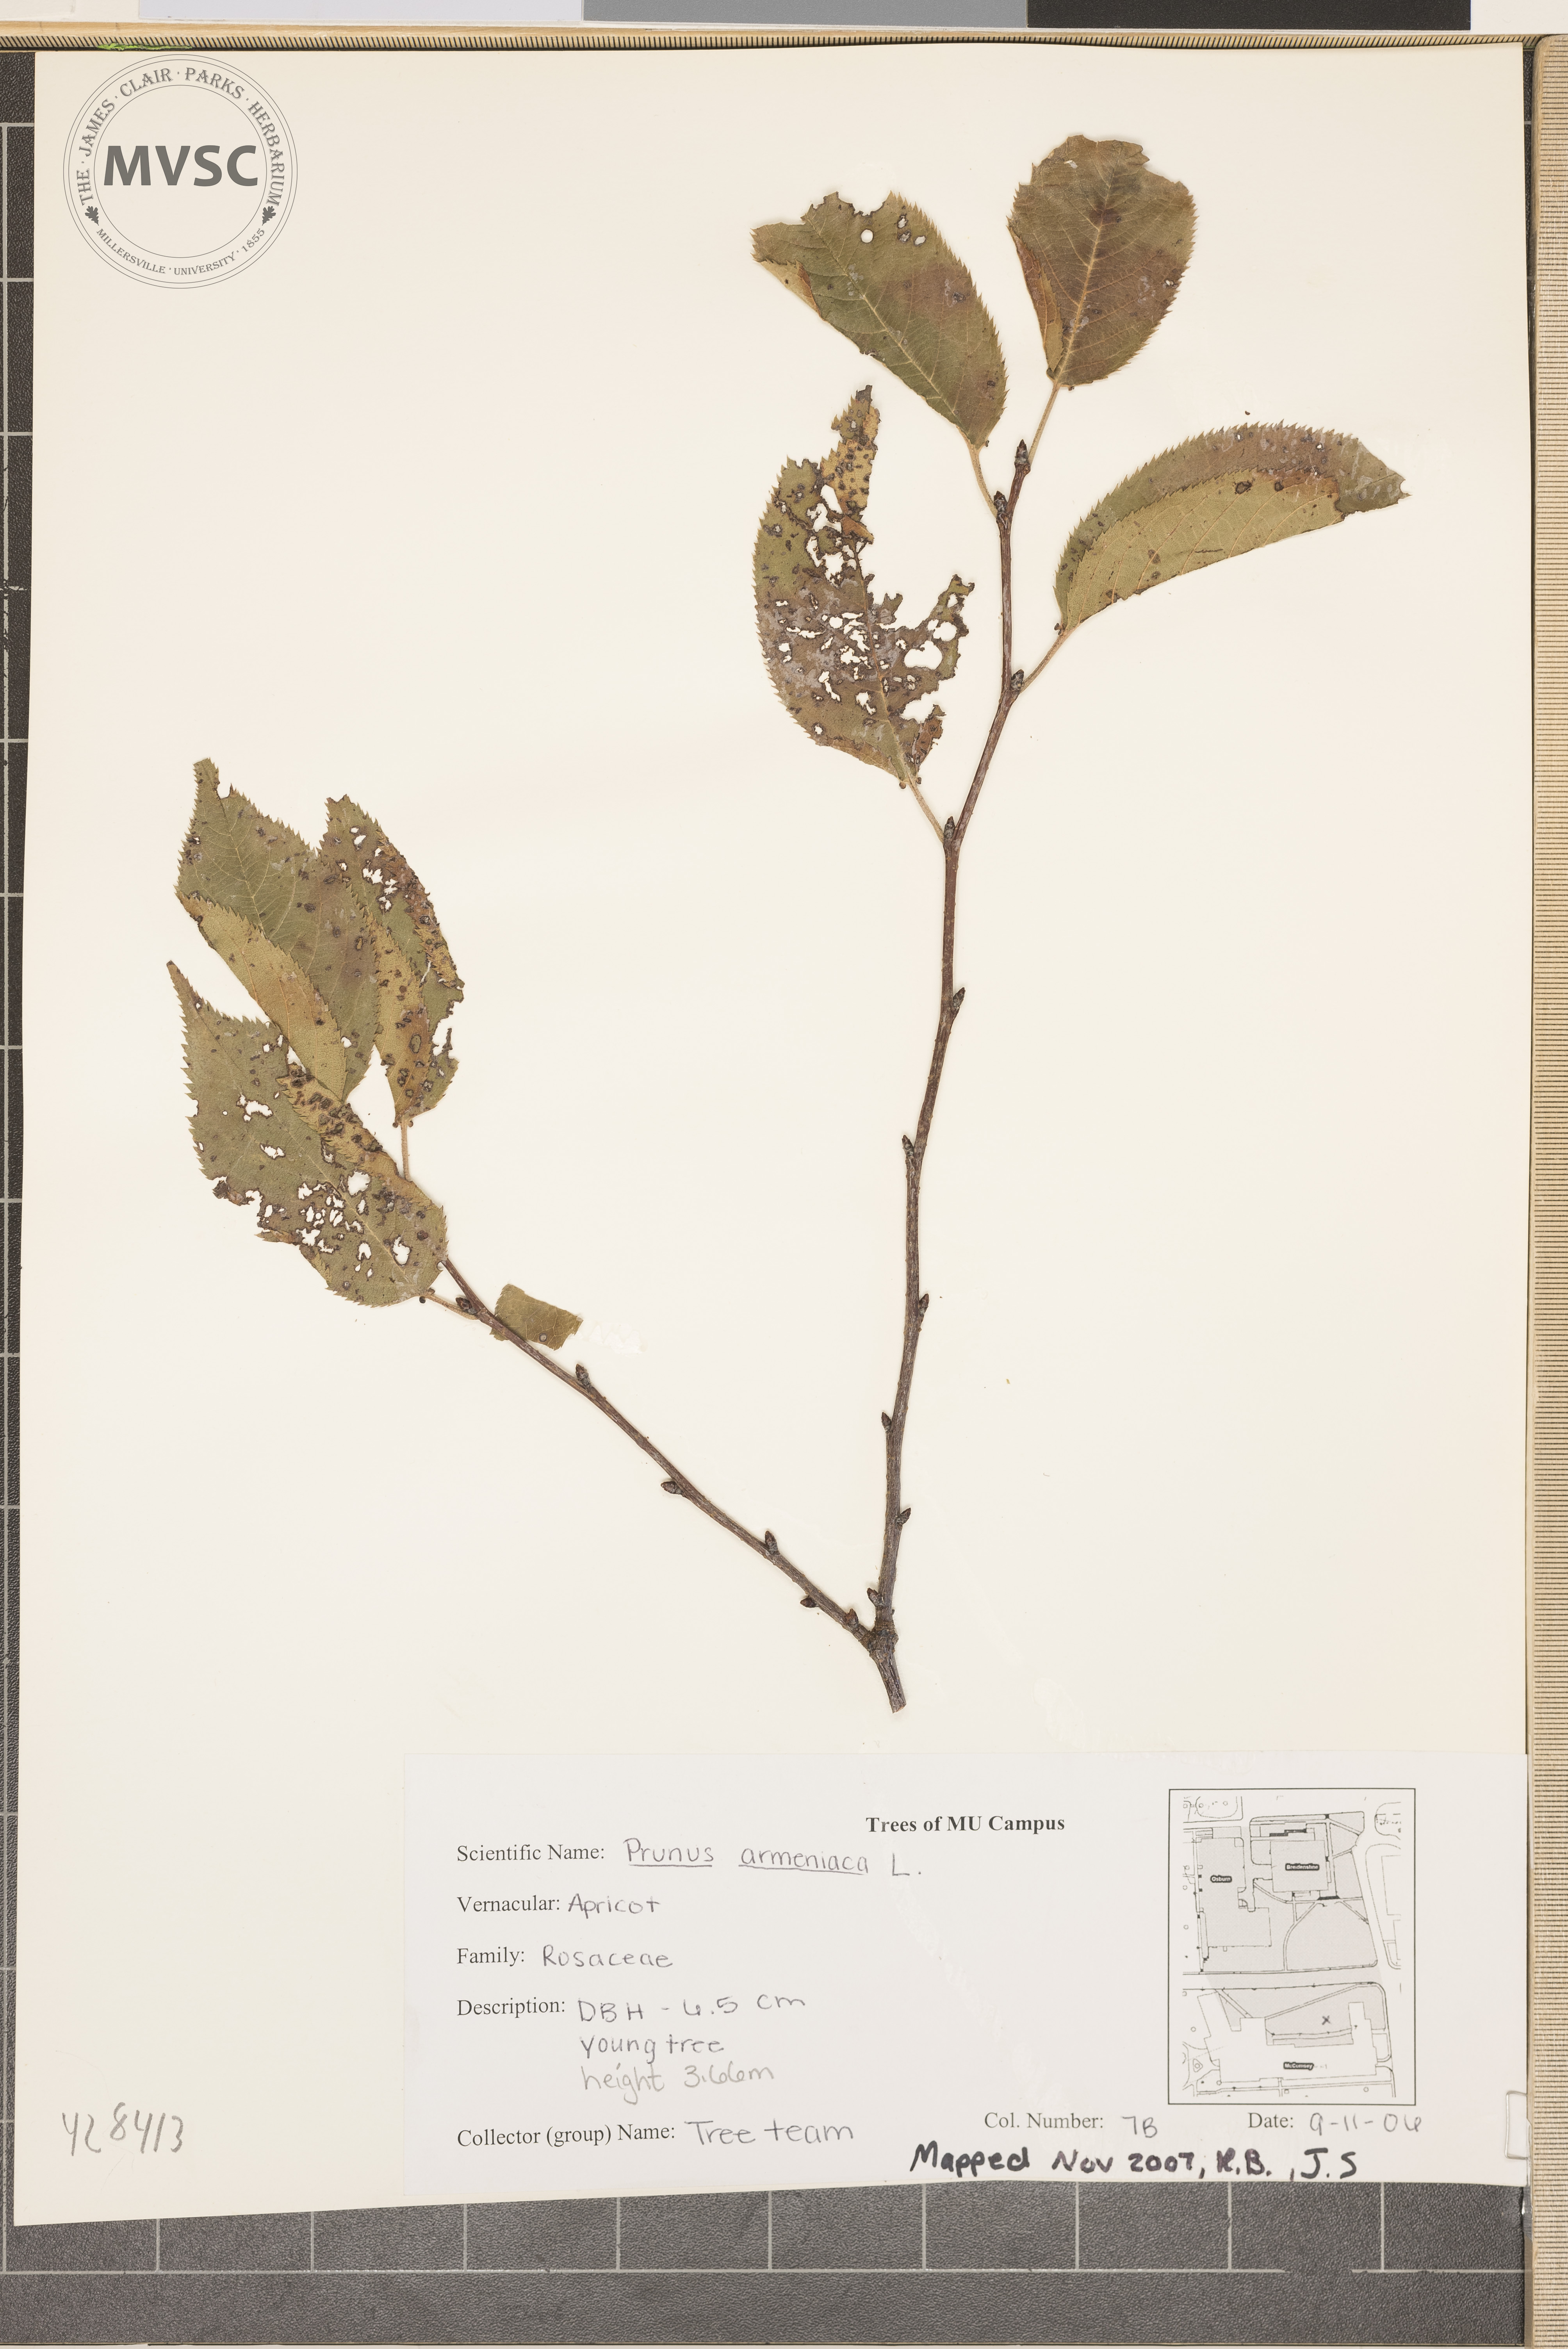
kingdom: Plantae
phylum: Tracheophyta
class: Magnoliopsida
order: Rosales
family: Rosaceae
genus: Prunus
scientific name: Prunus armeniaca
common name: Apricot
